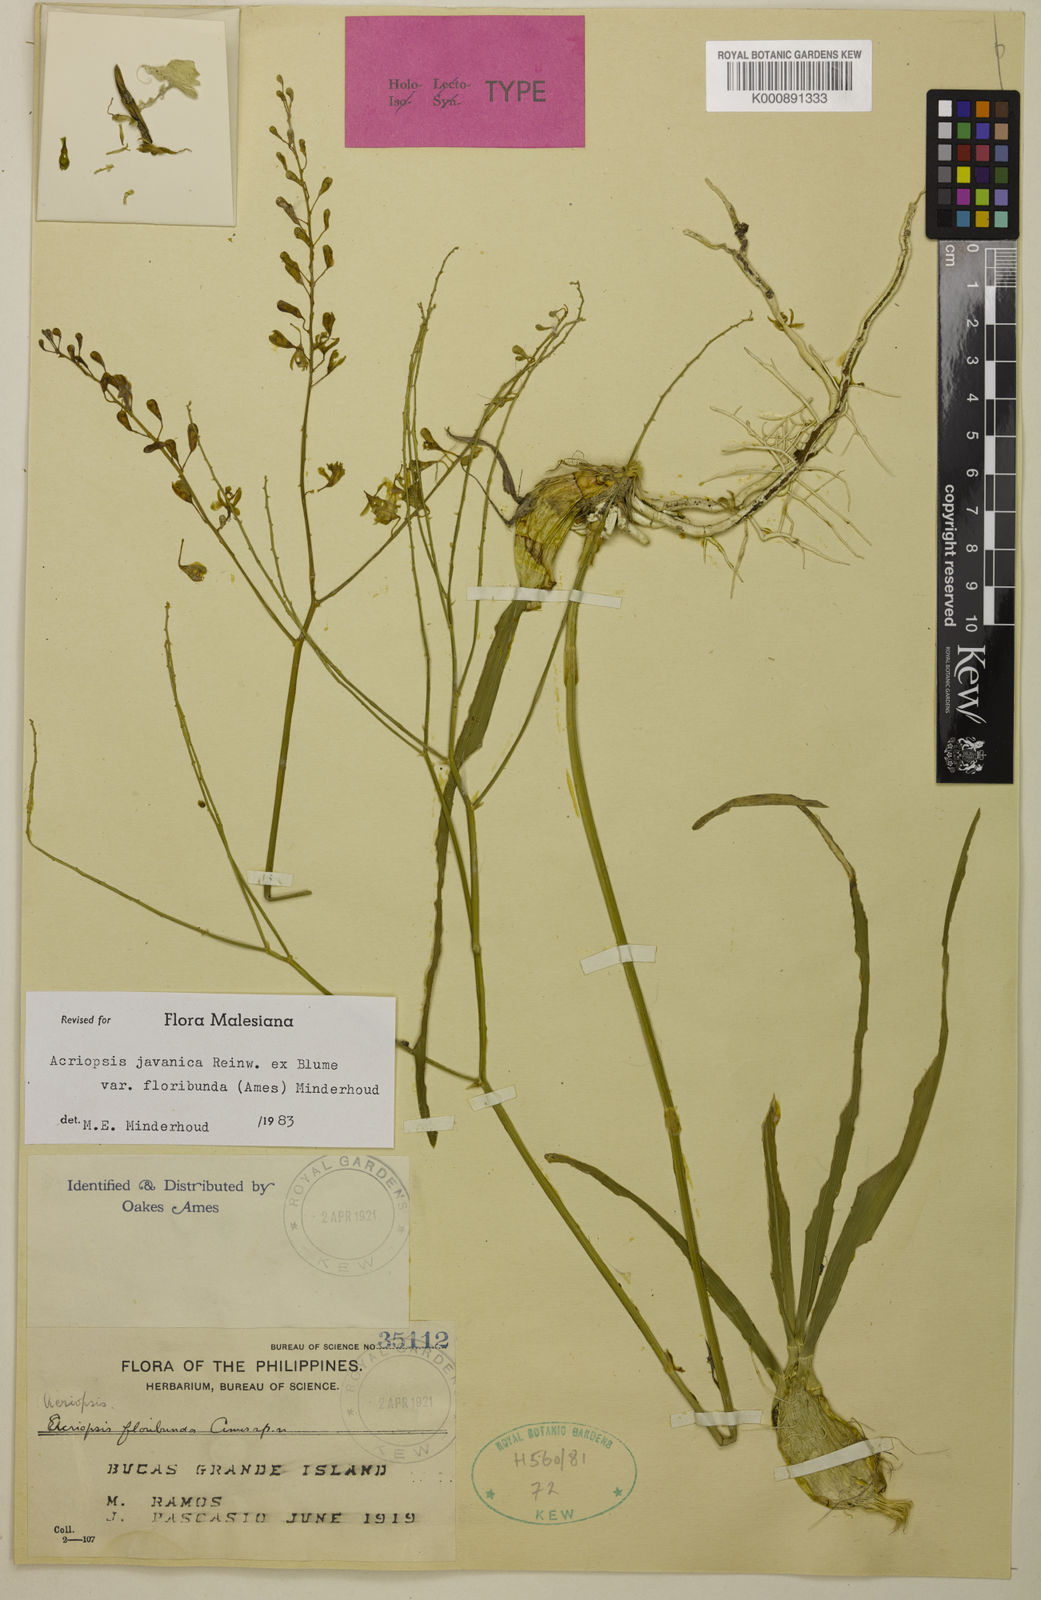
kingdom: Plantae
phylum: Tracheophyta
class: Liliopsida
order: Asparagales
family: Orchidaceae
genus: Acriopsis
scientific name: Acriopsis floribunda
